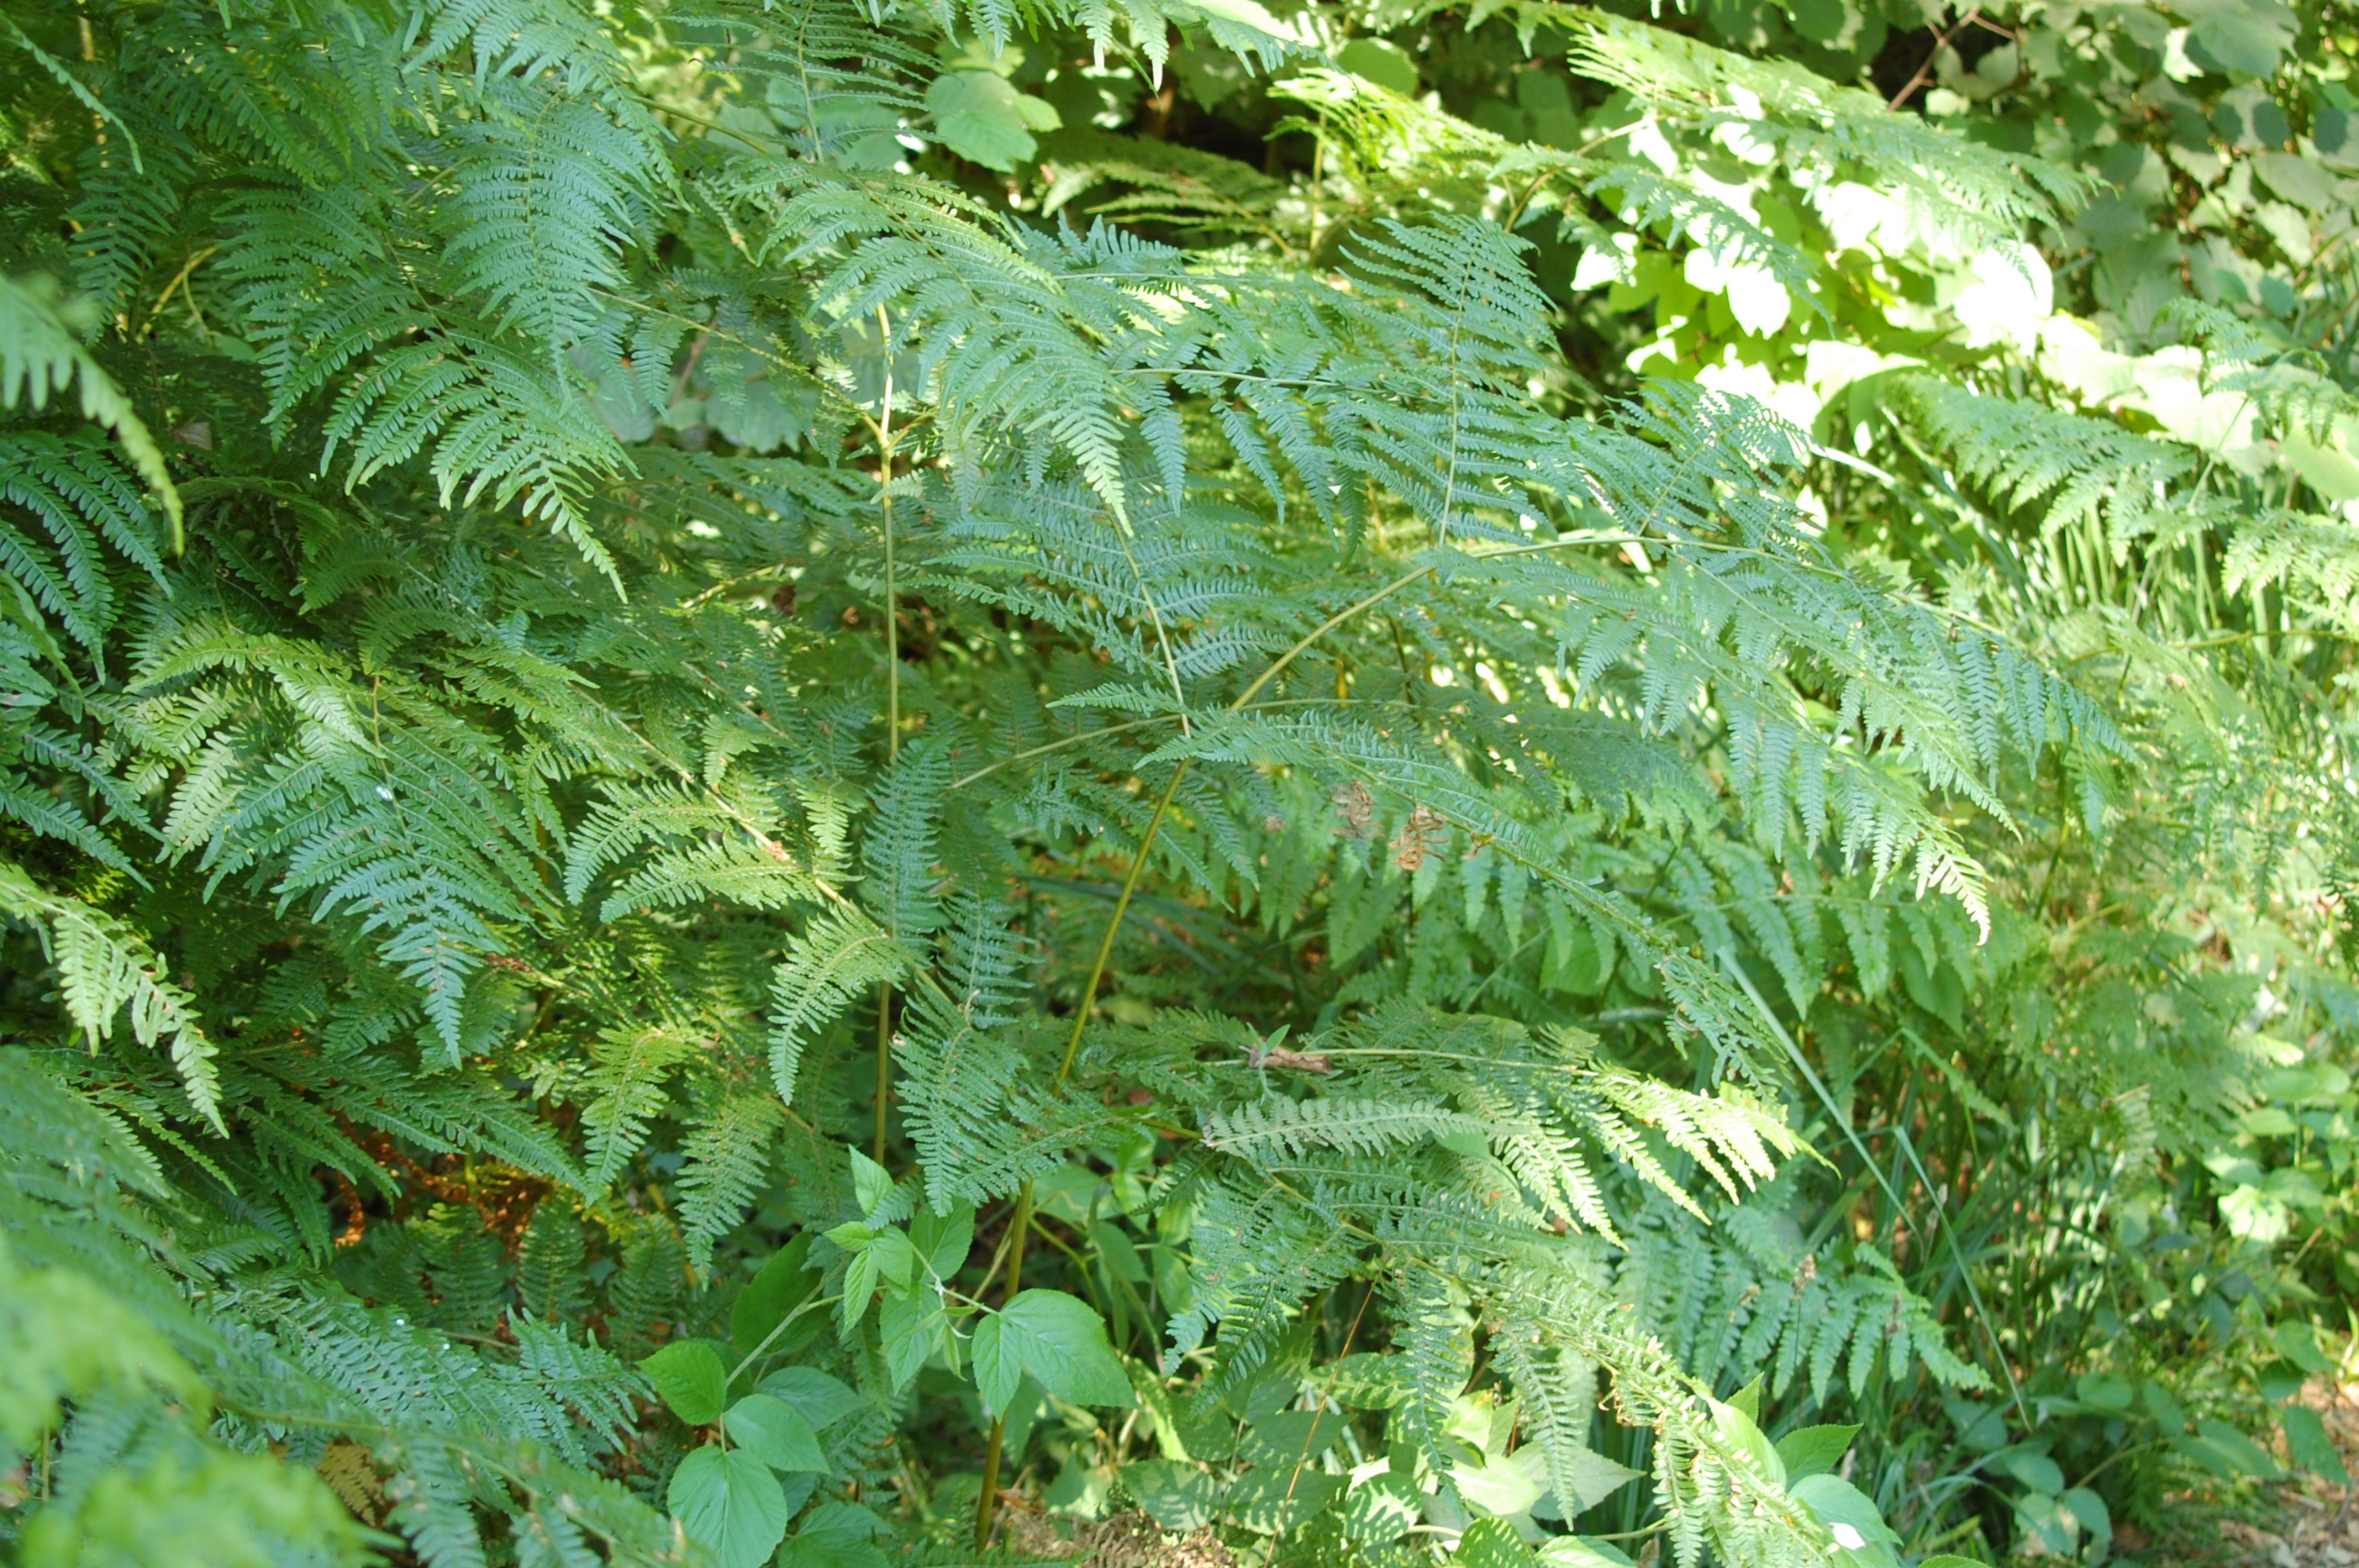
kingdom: Plantae
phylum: Tracheophyta
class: Polypodiopsida
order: Polypodiales
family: Dennstaedtiaceae
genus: Pteridium
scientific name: Pteridium aquilinum
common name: Ørnebregne
